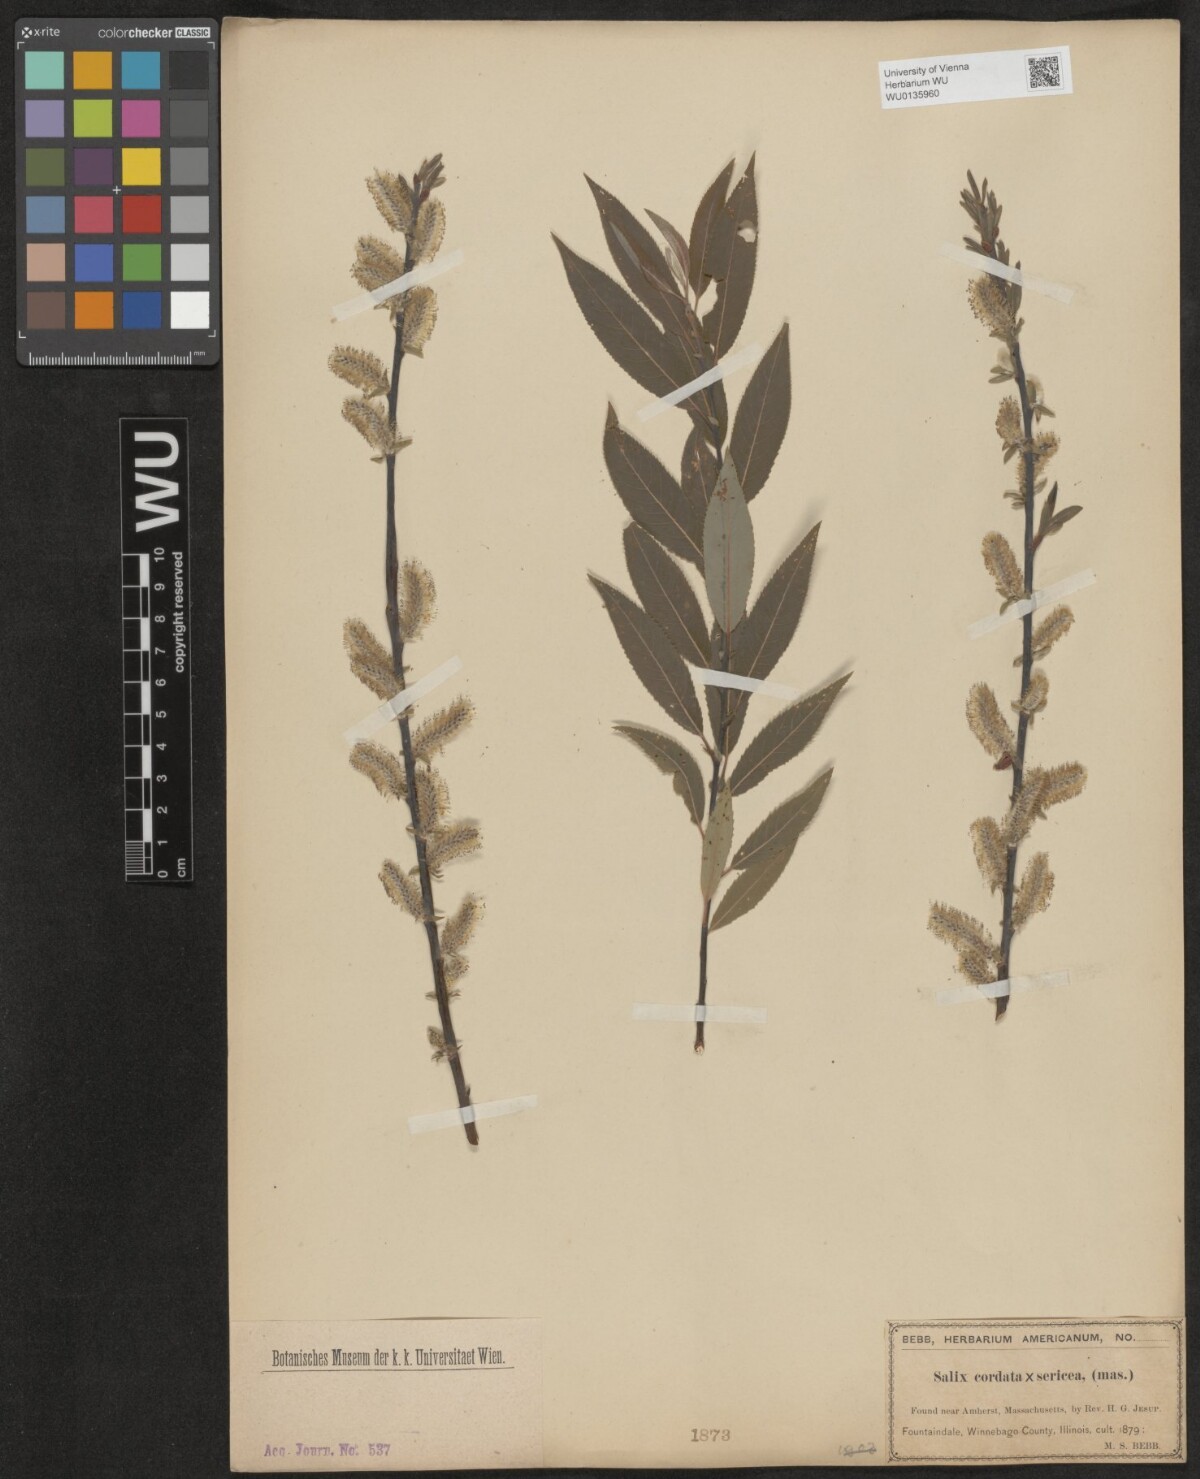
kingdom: Plantae
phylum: Tracheophyta
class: Magnoliopsida
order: Malpighiales
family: Salicaceae
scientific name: Salicaceae
